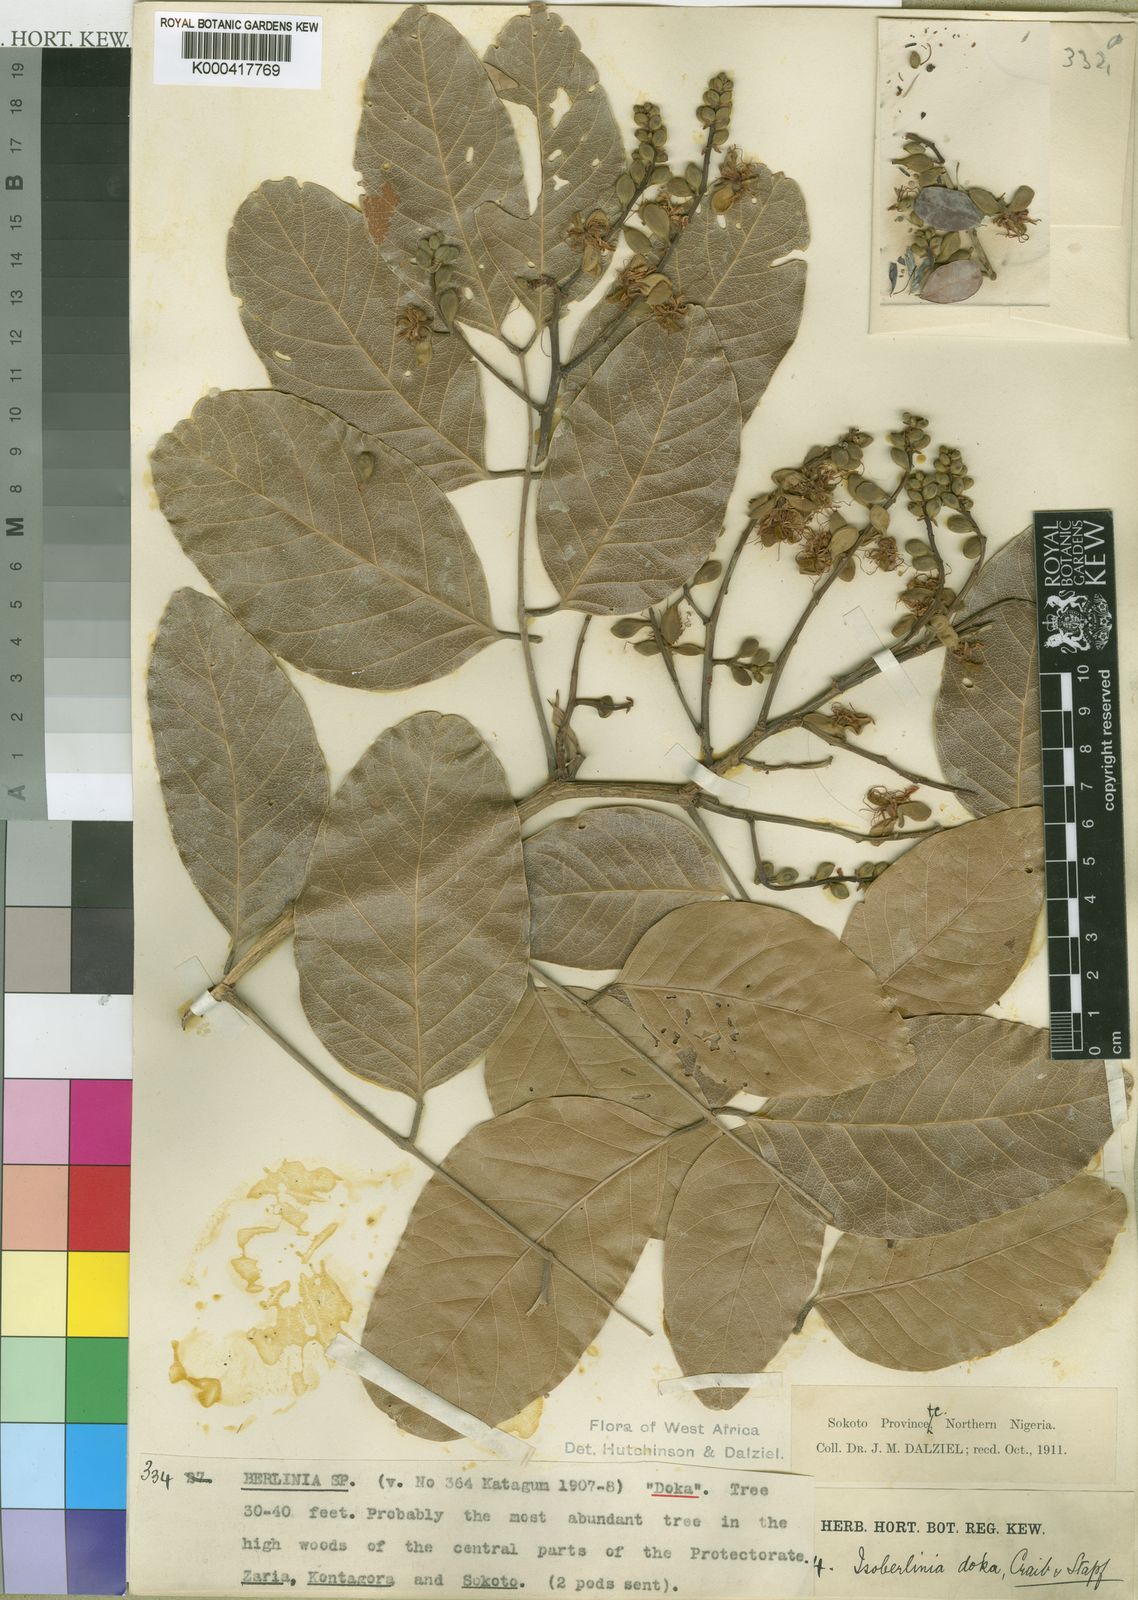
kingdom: Plantae
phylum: Tracheophyta
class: Magnoliopsida
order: Fabales
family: Fabaceae
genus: Isoberlinia
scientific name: Isoberlinia doka
